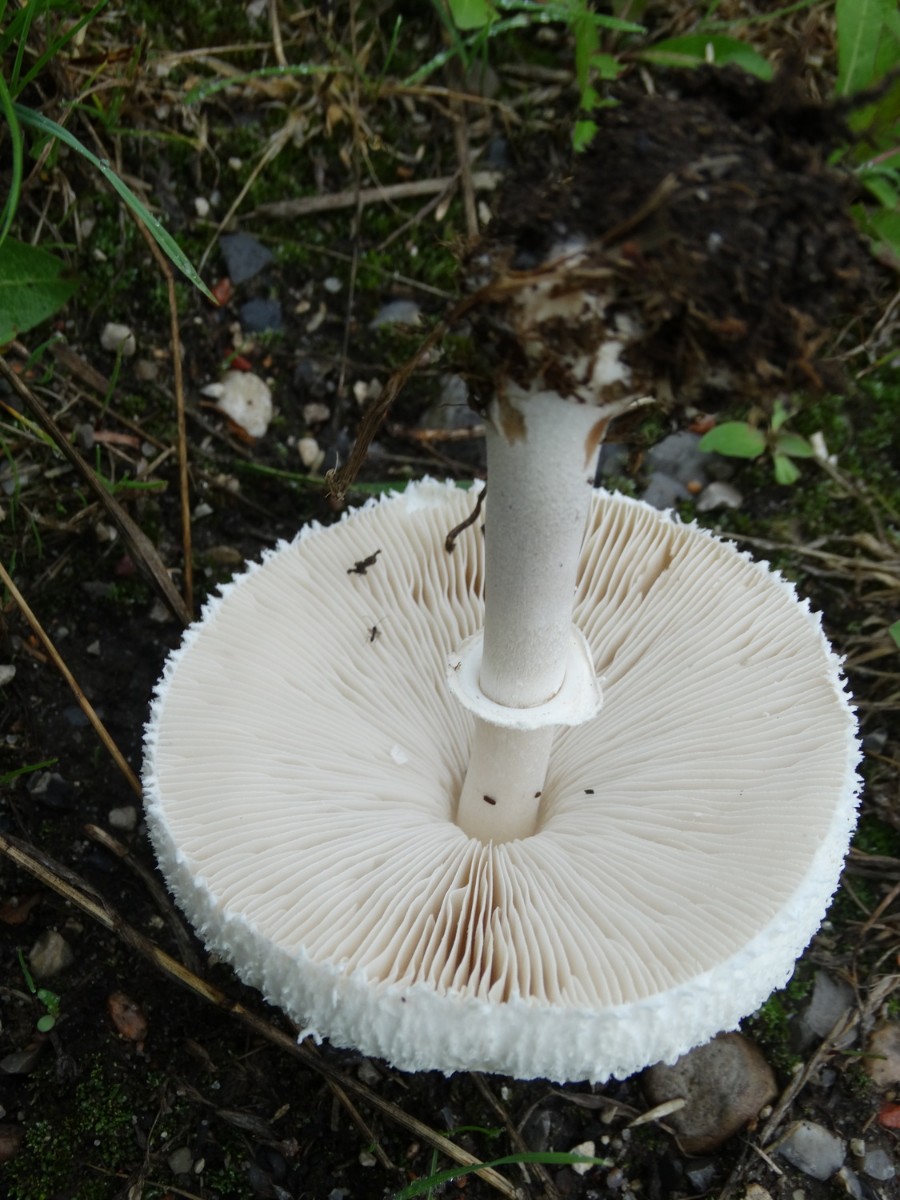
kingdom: Fungi
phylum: Basidiomycota
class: Agaricomycetes
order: Agaricales
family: Agaricaceae
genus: Macrolepiota
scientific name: Macrolepiota excoriata
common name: mark-kæmpeparasolhat
